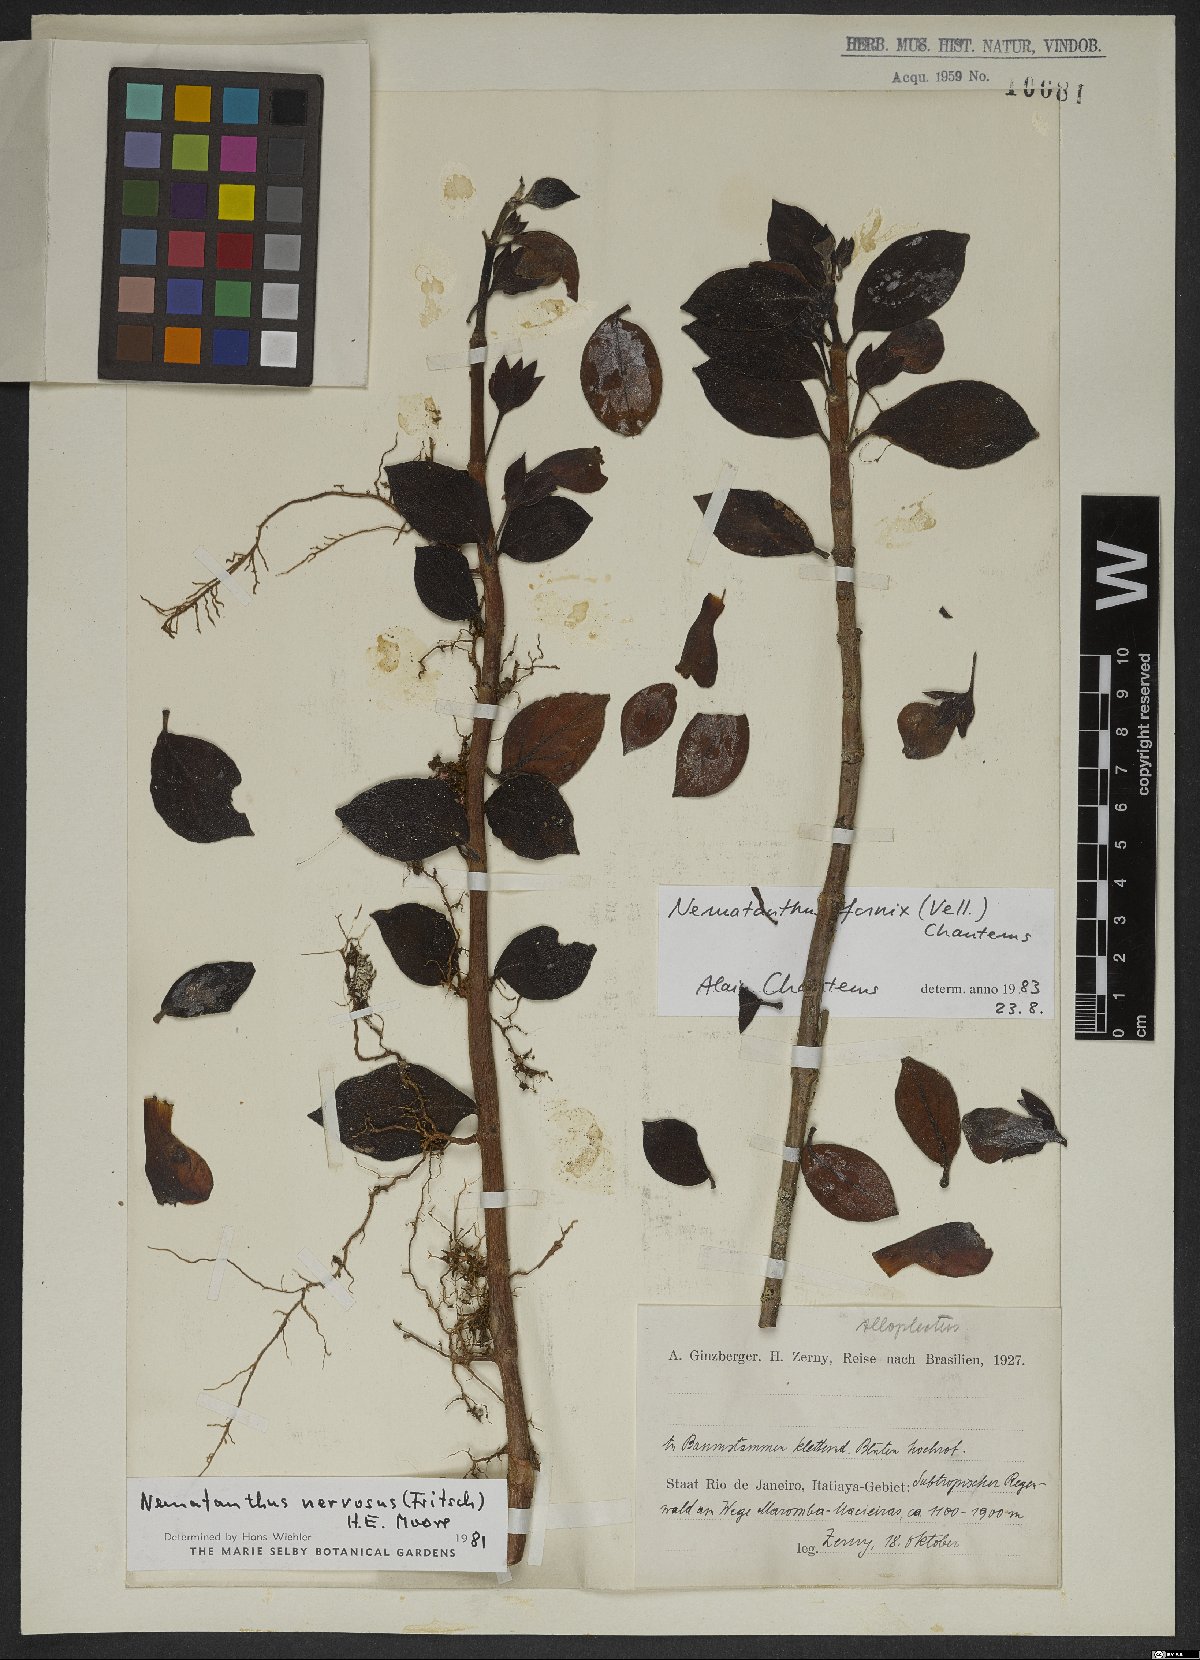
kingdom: Plantae
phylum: Tracheophyta
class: Magnoliopsida
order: Lamiales
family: Gesneriaceae
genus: Nematanthus
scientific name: Nematanthus fornix
